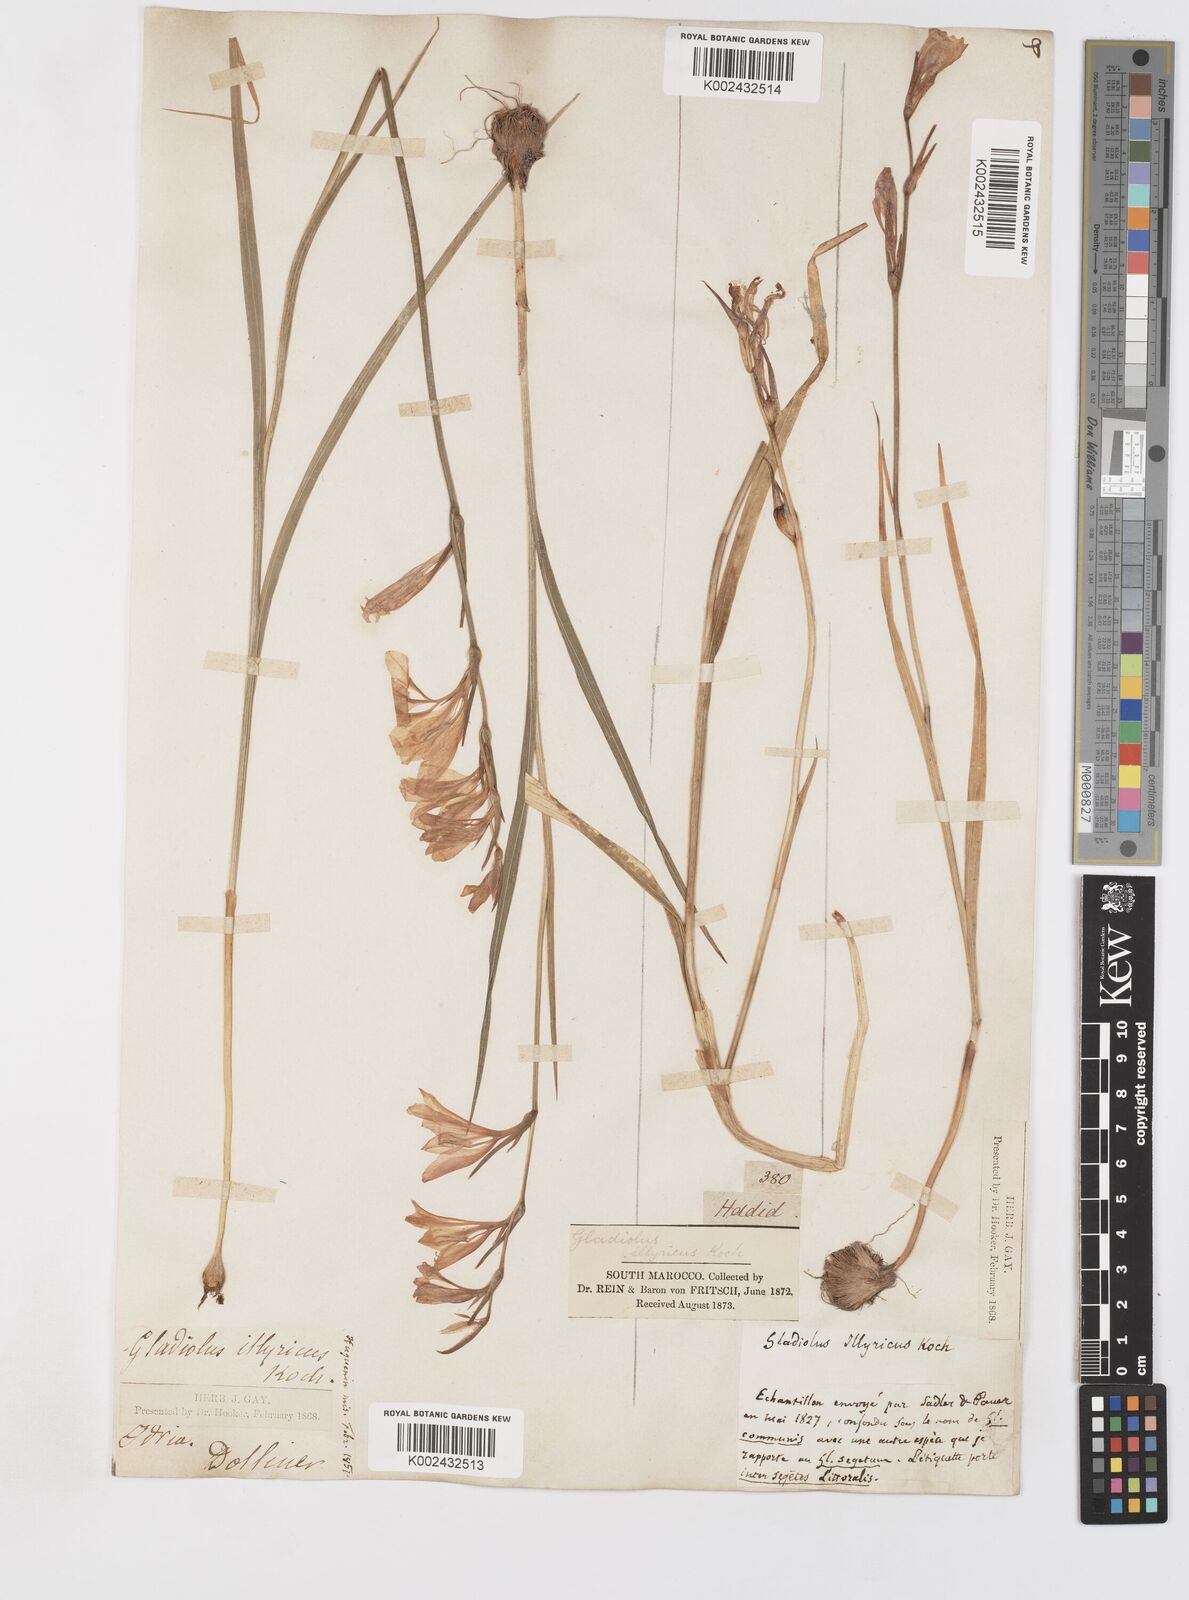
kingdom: Plantae
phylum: Tracheophyta
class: Liliopsida
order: Asparagales
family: Iridaceae
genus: Gladiolus
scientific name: Gladiolus illyricus
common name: Wild gladiolus
